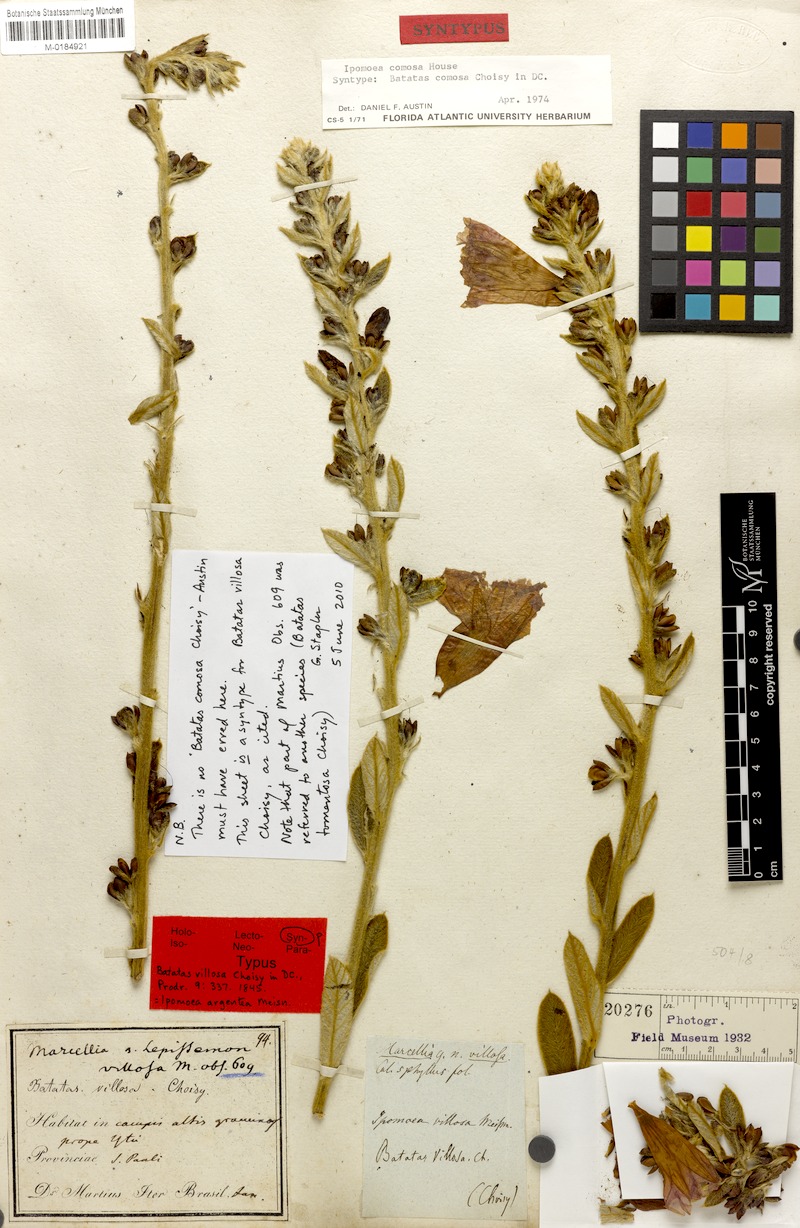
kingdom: Plantae
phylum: Tracheophyta
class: Magnoliopsida
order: Solanales
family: Convolvulaceae
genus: Ipomoea
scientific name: Ipomoea argentea
